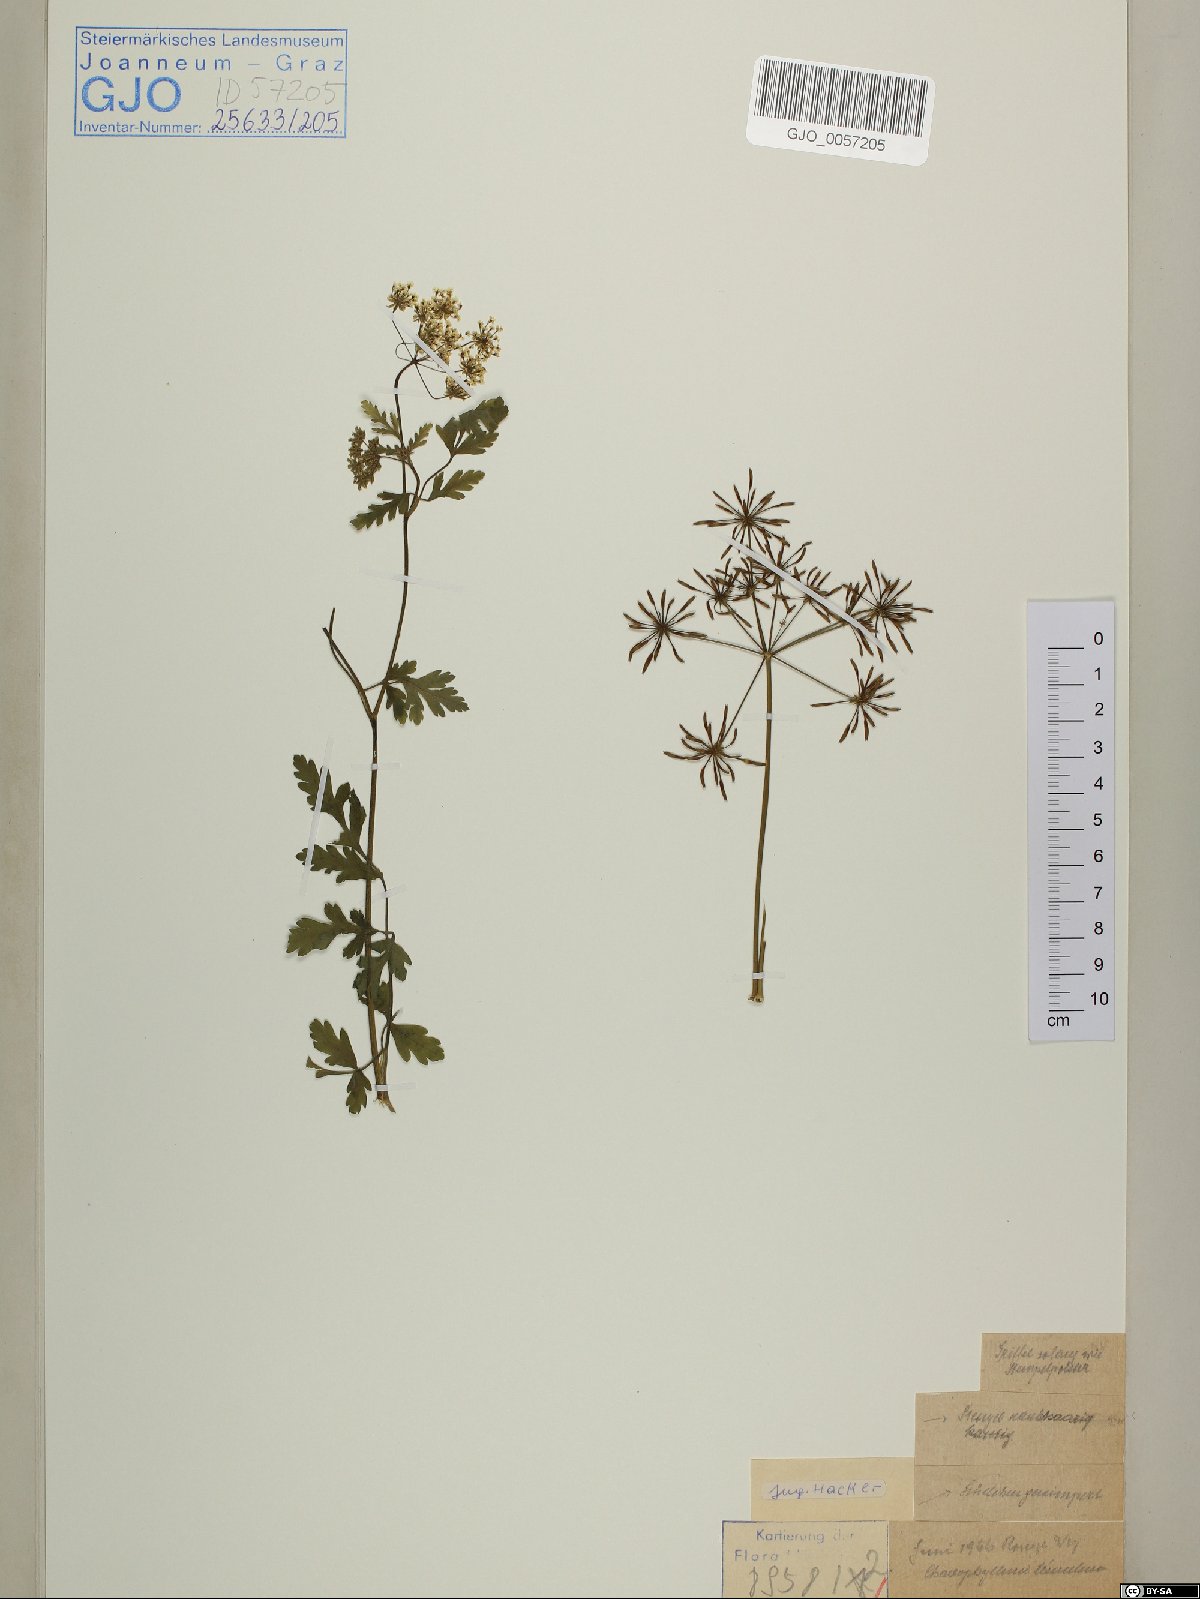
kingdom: Plantae
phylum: Tracheophyta
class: Magnoliopsida
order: Apiales
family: Apiaceae
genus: Chaerophyllum
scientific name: Chaerophyllum temulum
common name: Rough chervil
